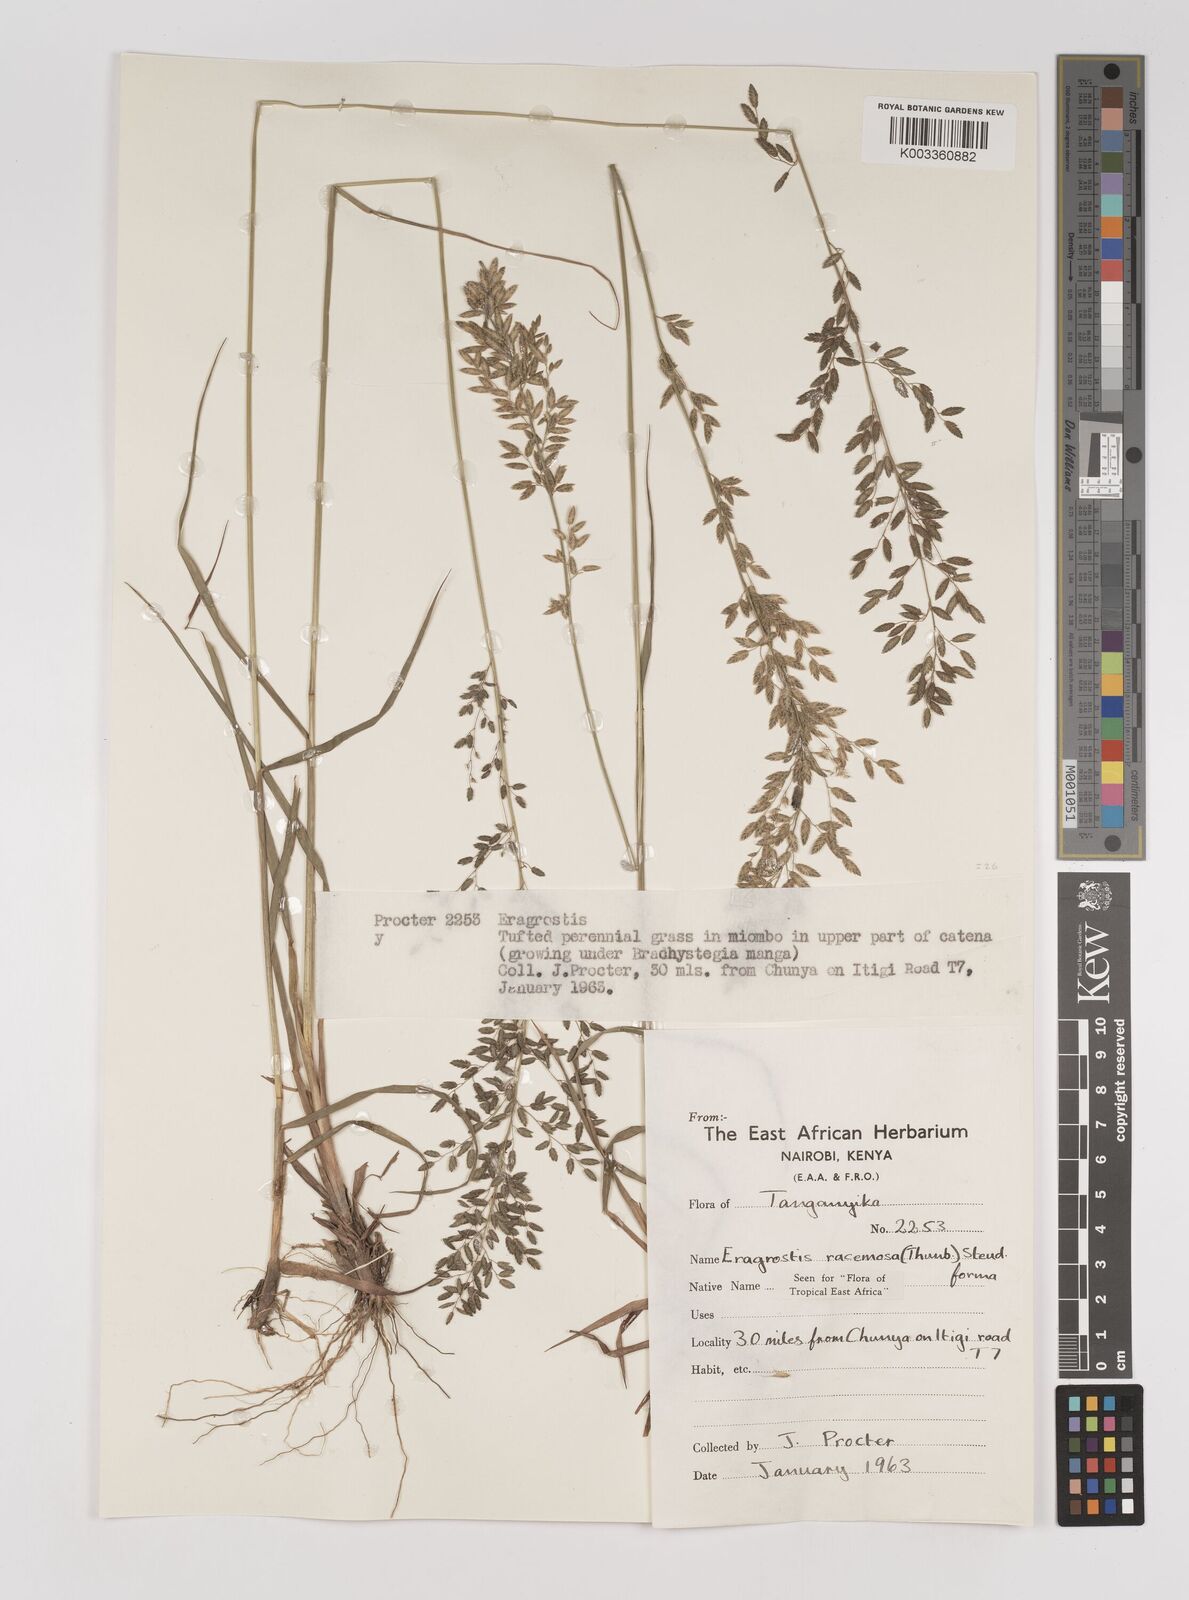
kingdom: Plantae
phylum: Tracheophyta
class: Liliopsida
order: Poales
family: Poaceae
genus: Eragrostis
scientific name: Eragrostis racemosa
